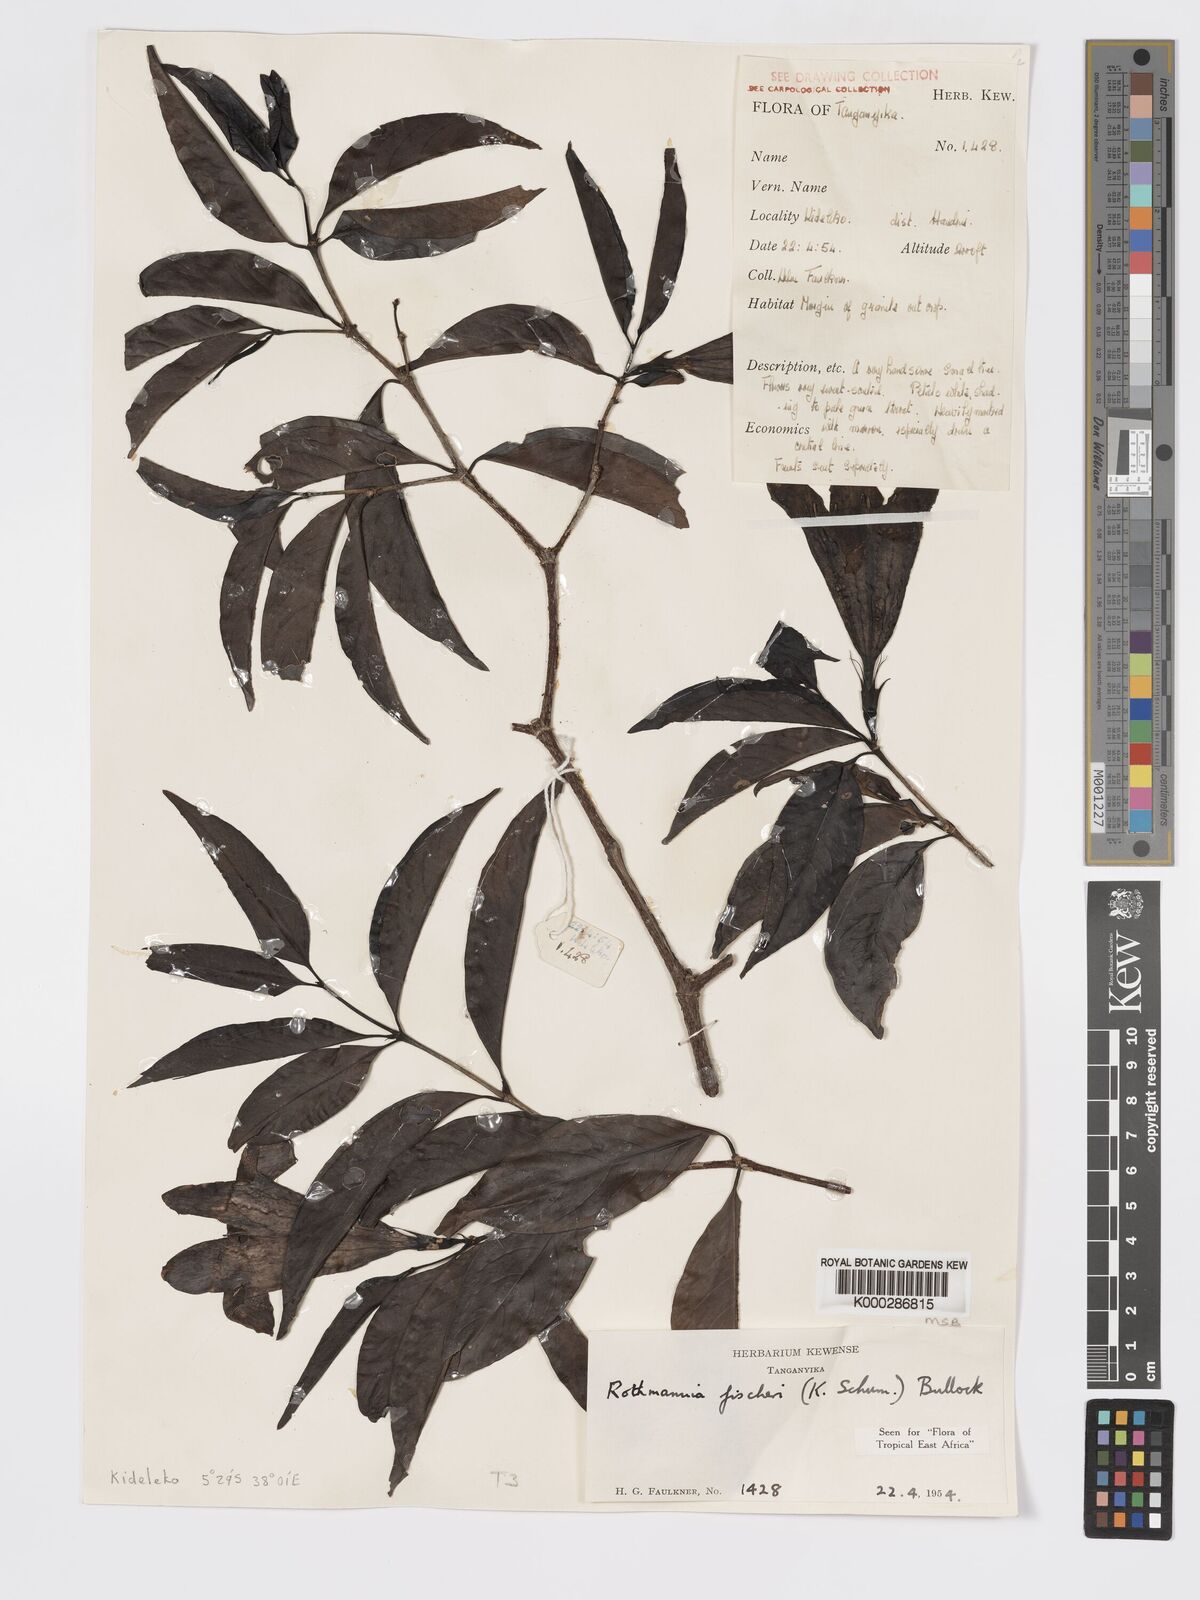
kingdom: Plantae
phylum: Tracheophyta
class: Magnoliopsida
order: Gentianales
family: Rubiaceae
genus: Rothmannia
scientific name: Rothmannia ravae
